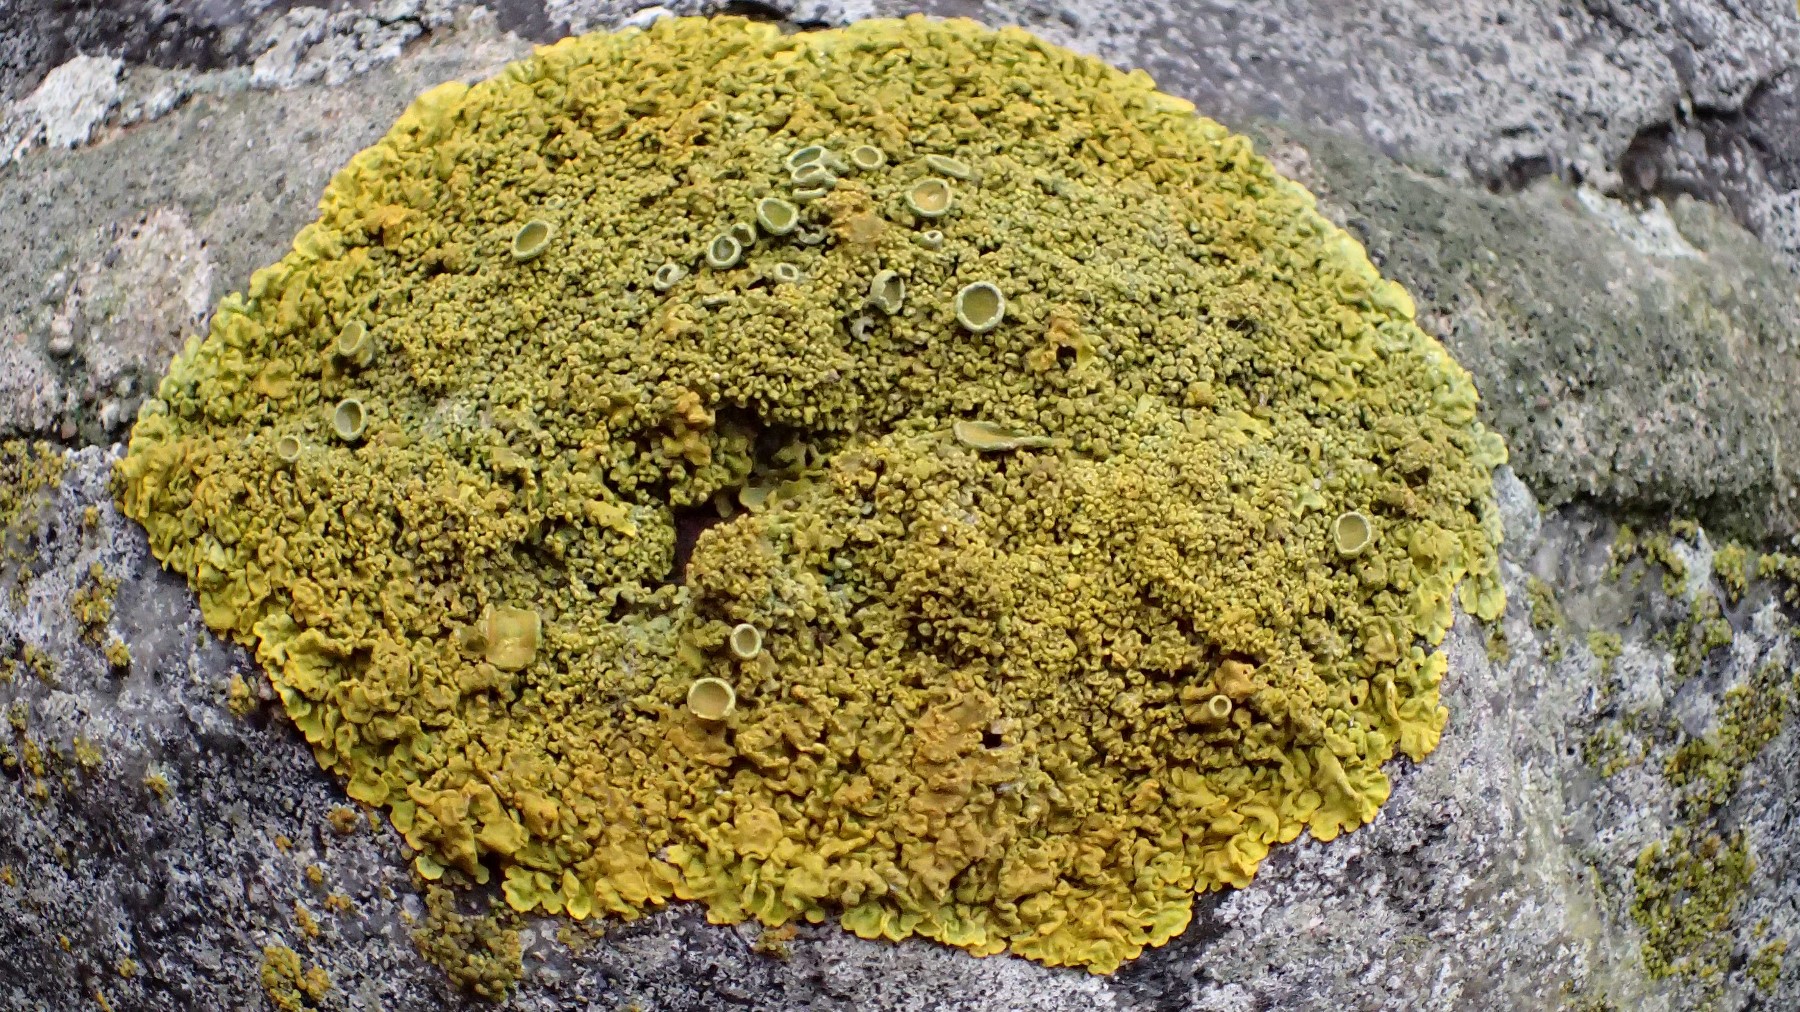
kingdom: Fungi
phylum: Ascomycota
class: Lecanoromycetes
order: Teloschistales
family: Teloschistaceae
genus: Xanthoria
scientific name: Xanthoria calcicola
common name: vortet væggelav
